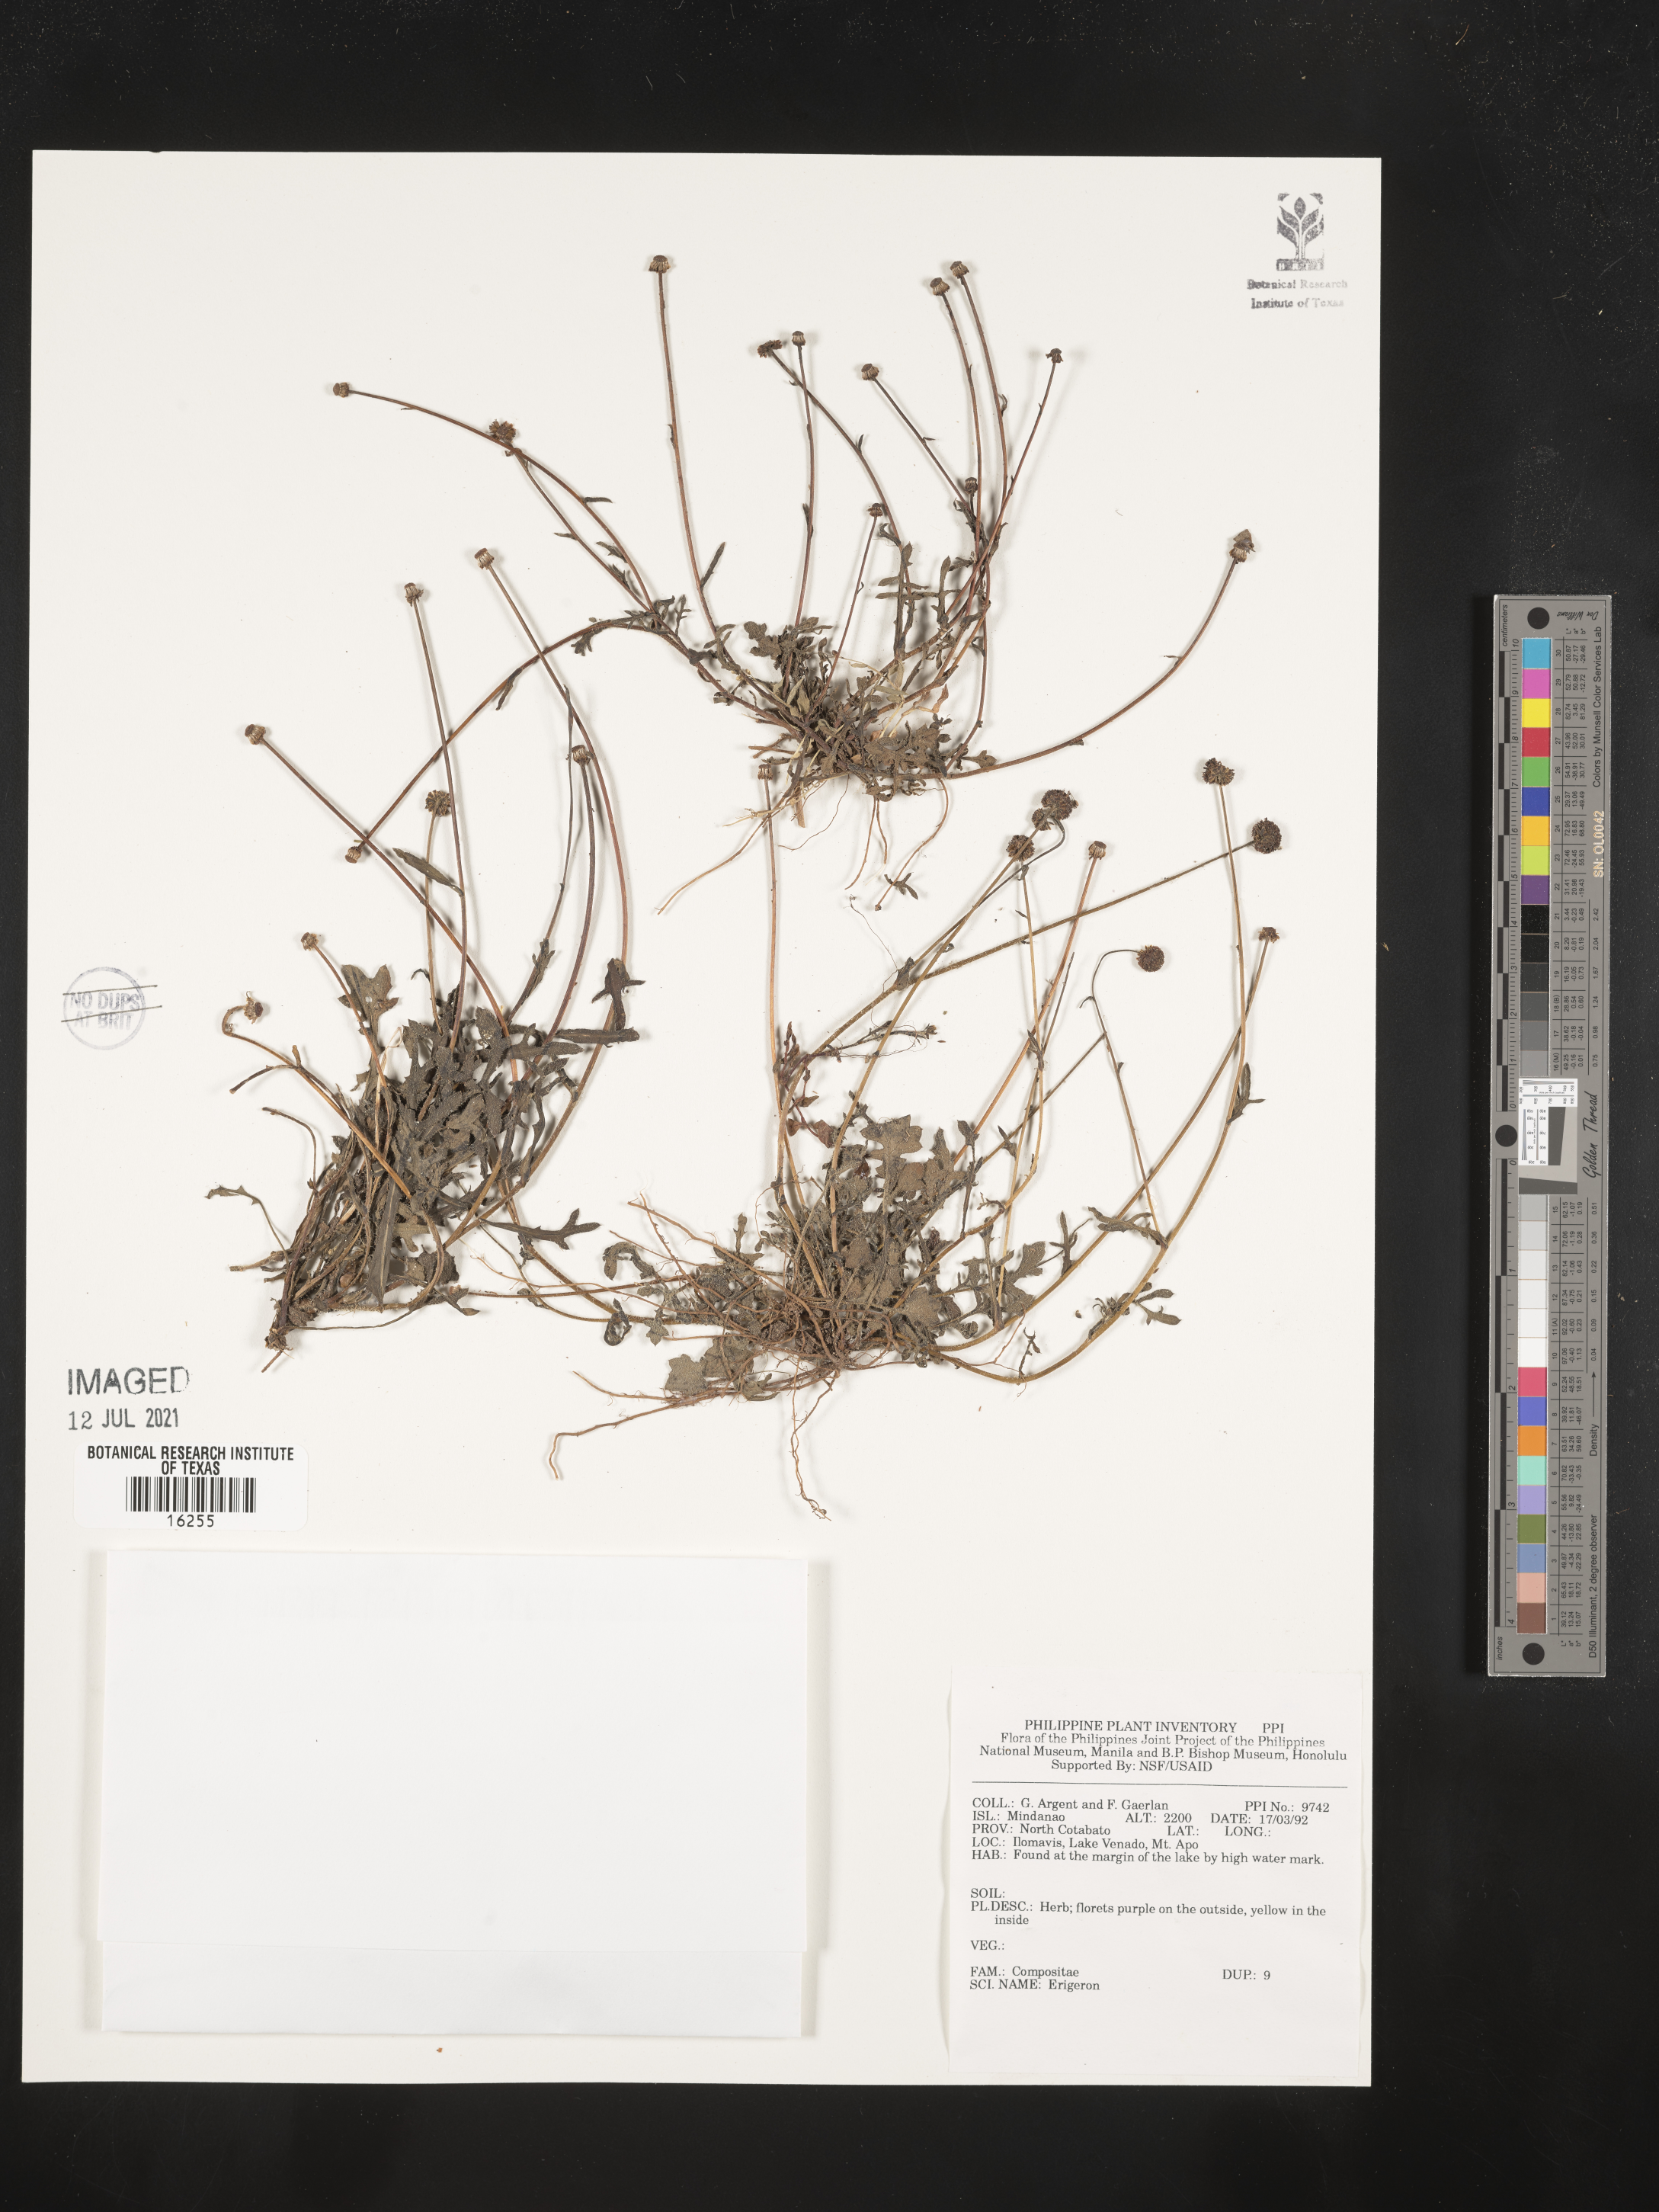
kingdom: Plantae
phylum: Tracheophyta
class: Magnoliopsida
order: Asterales
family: Asteraceae
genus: Erigeron
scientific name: Erigeron
